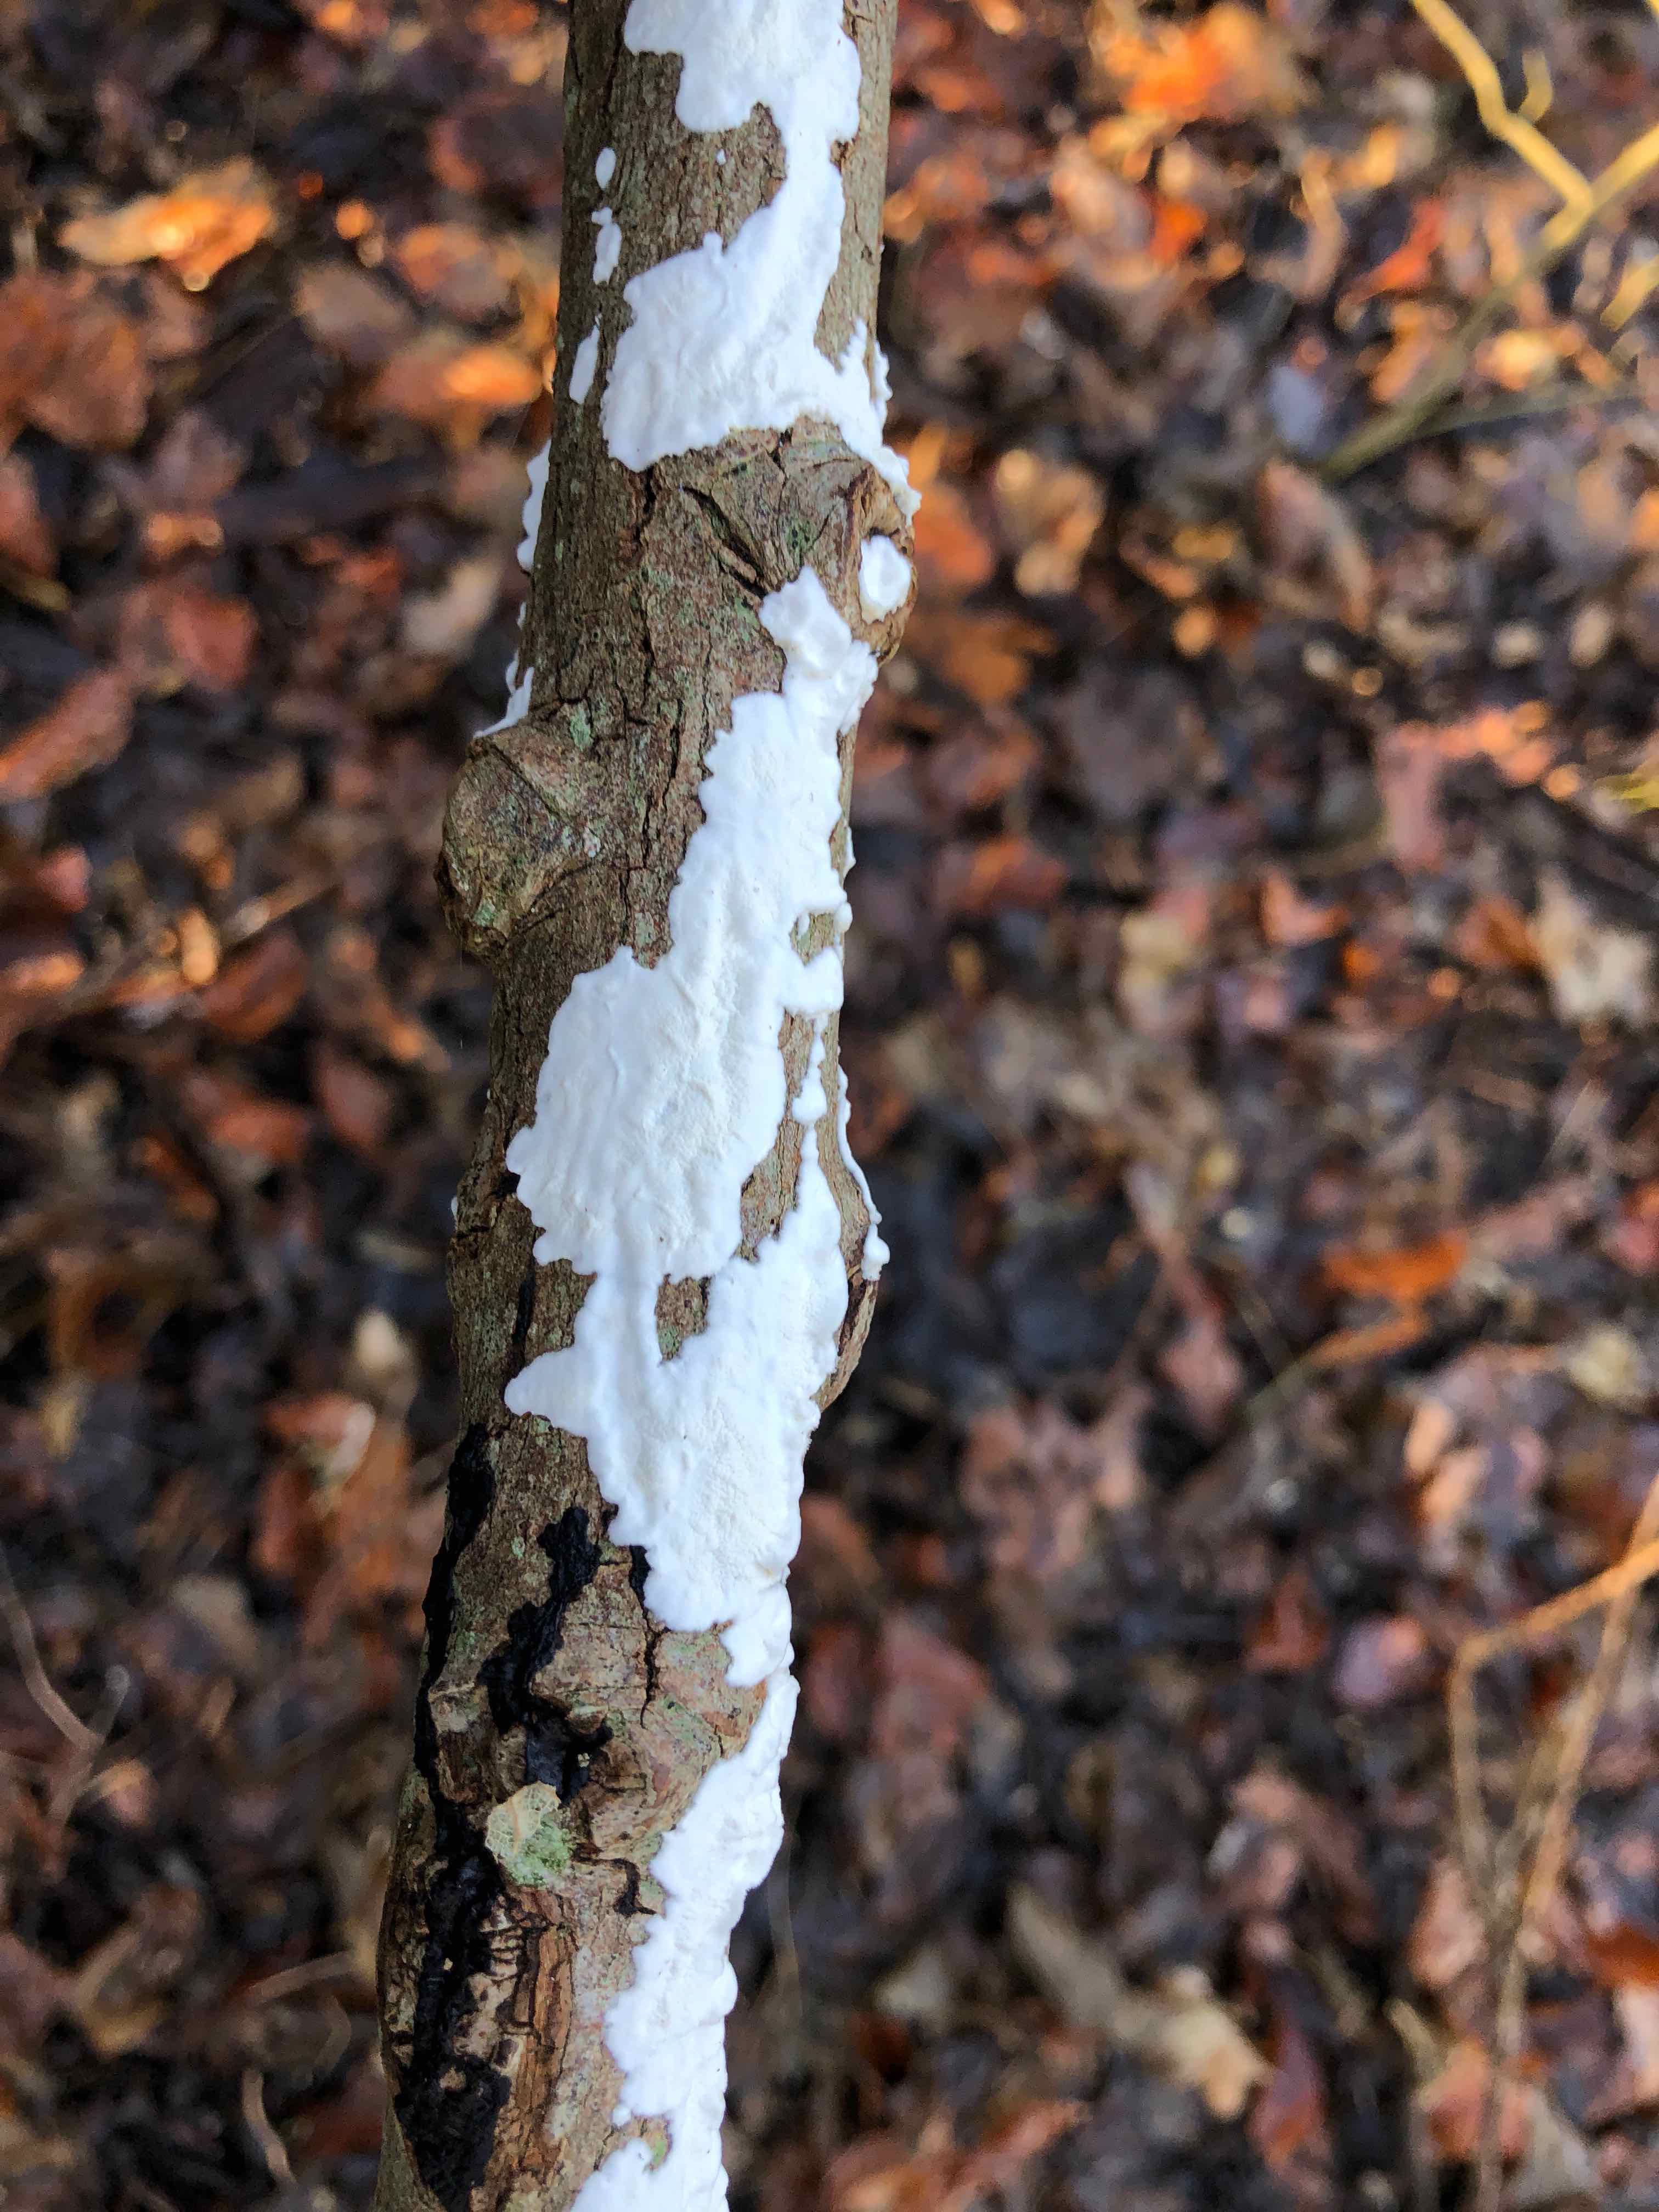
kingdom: Fungi
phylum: Basidiomycota
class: Agaricomycetes
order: Polyporales
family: Irpicaceae
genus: Byssomerulius
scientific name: Byssomerulius corium
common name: læder-åresvamp
